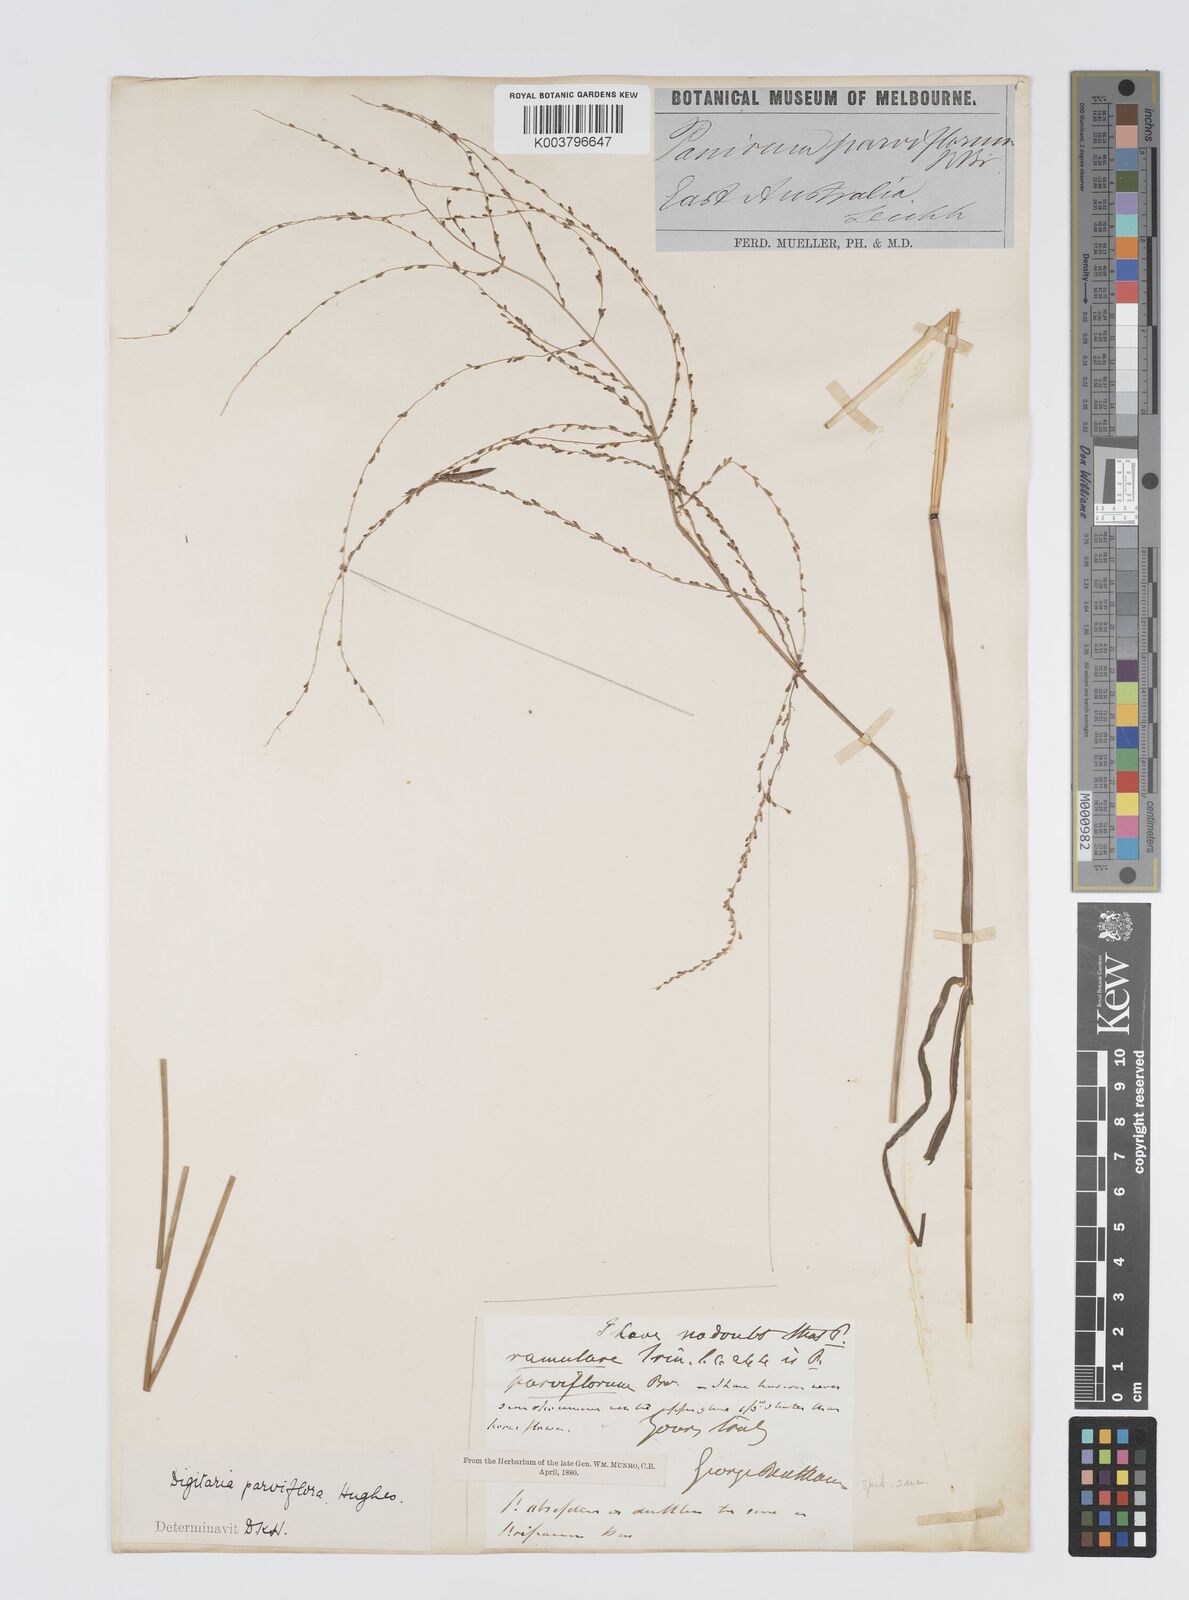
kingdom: Plantae
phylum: Tracheophyta
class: Liliopsida
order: Poales
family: Poaceae
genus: Digitaria
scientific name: Digitaria parviflora
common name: Small-flower finger grass
